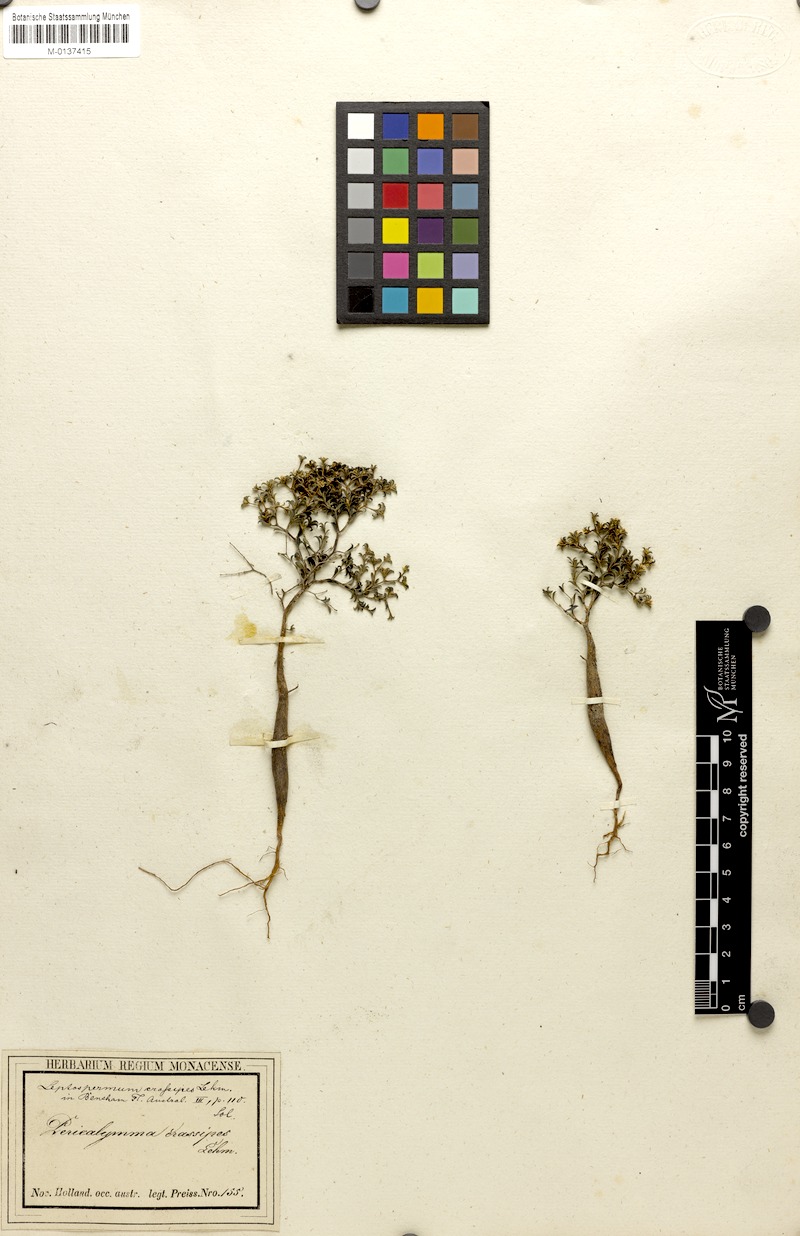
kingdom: Plantae
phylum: Tracheophyta
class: Magnoliopsida
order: Myrtales
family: Myrtaceae
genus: Pericalymma
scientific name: Pericalymma crassipes
